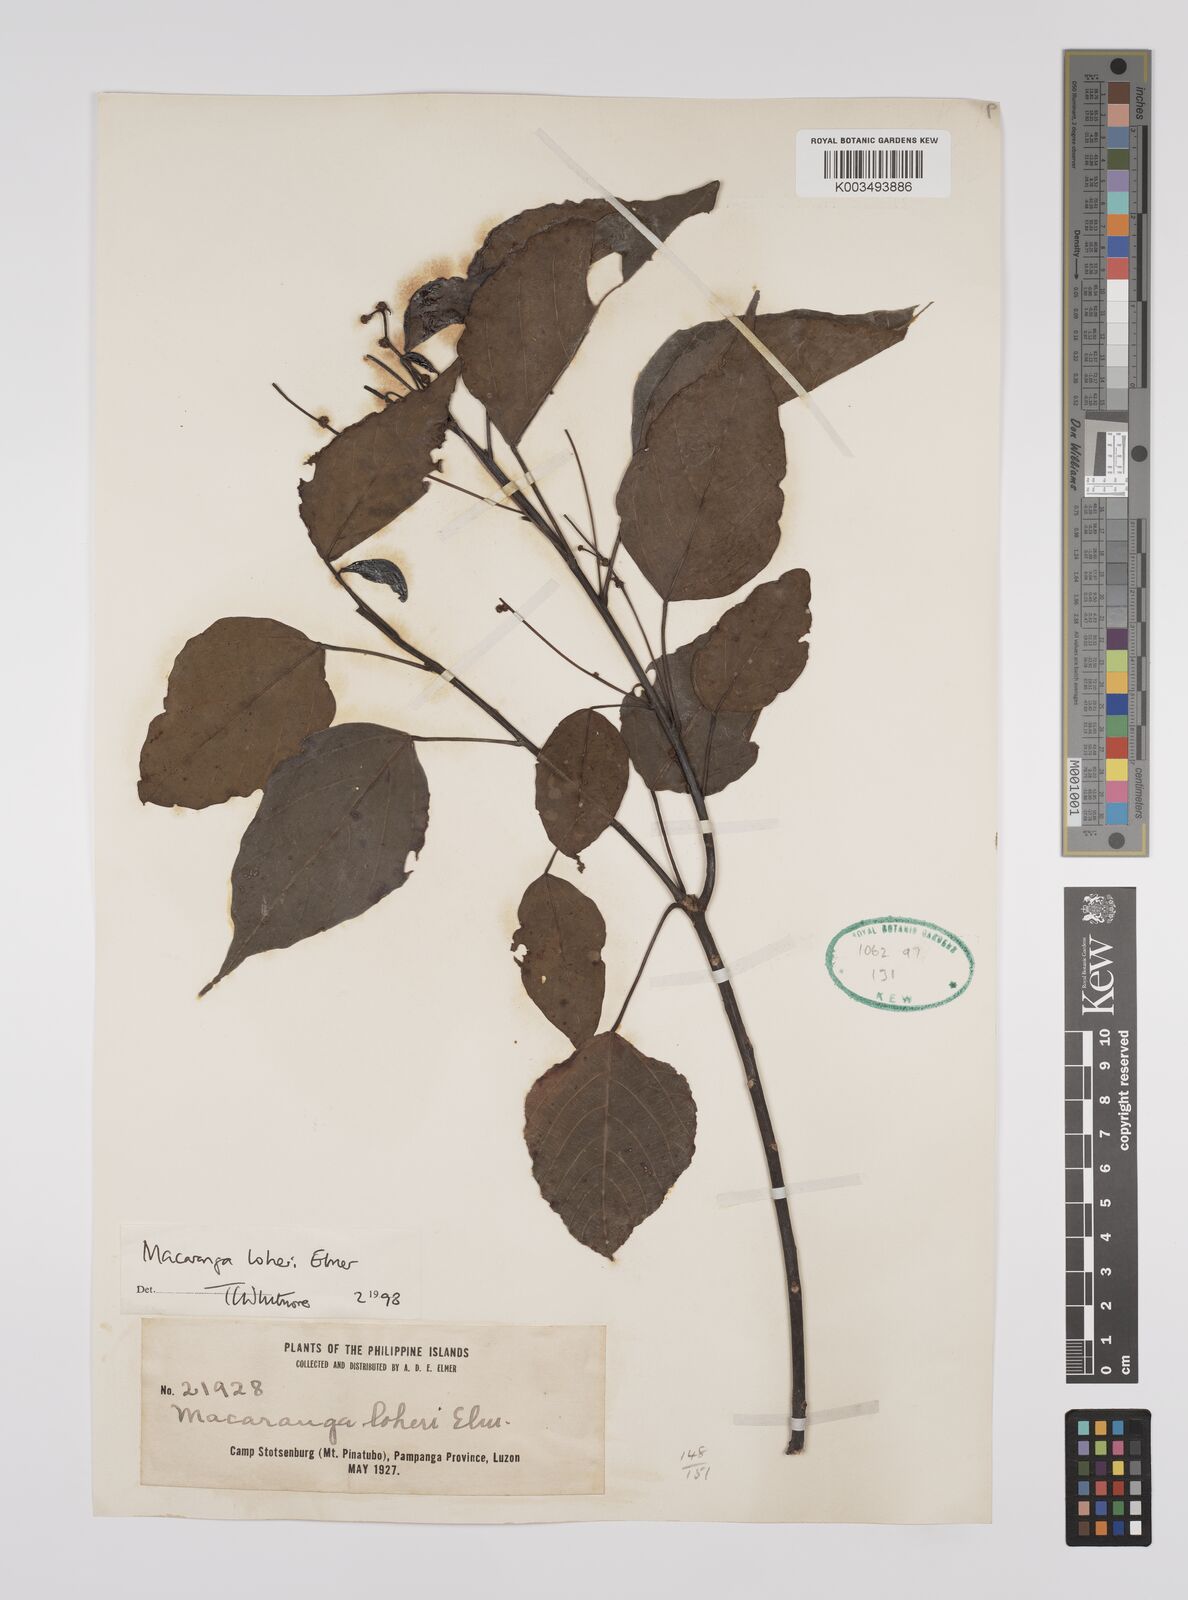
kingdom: Plantae
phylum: Tracheophyta
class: Magnoliopsida
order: Malpighiales
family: Euphorbiaceae
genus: Macaranga
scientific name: Macaranga loheri
